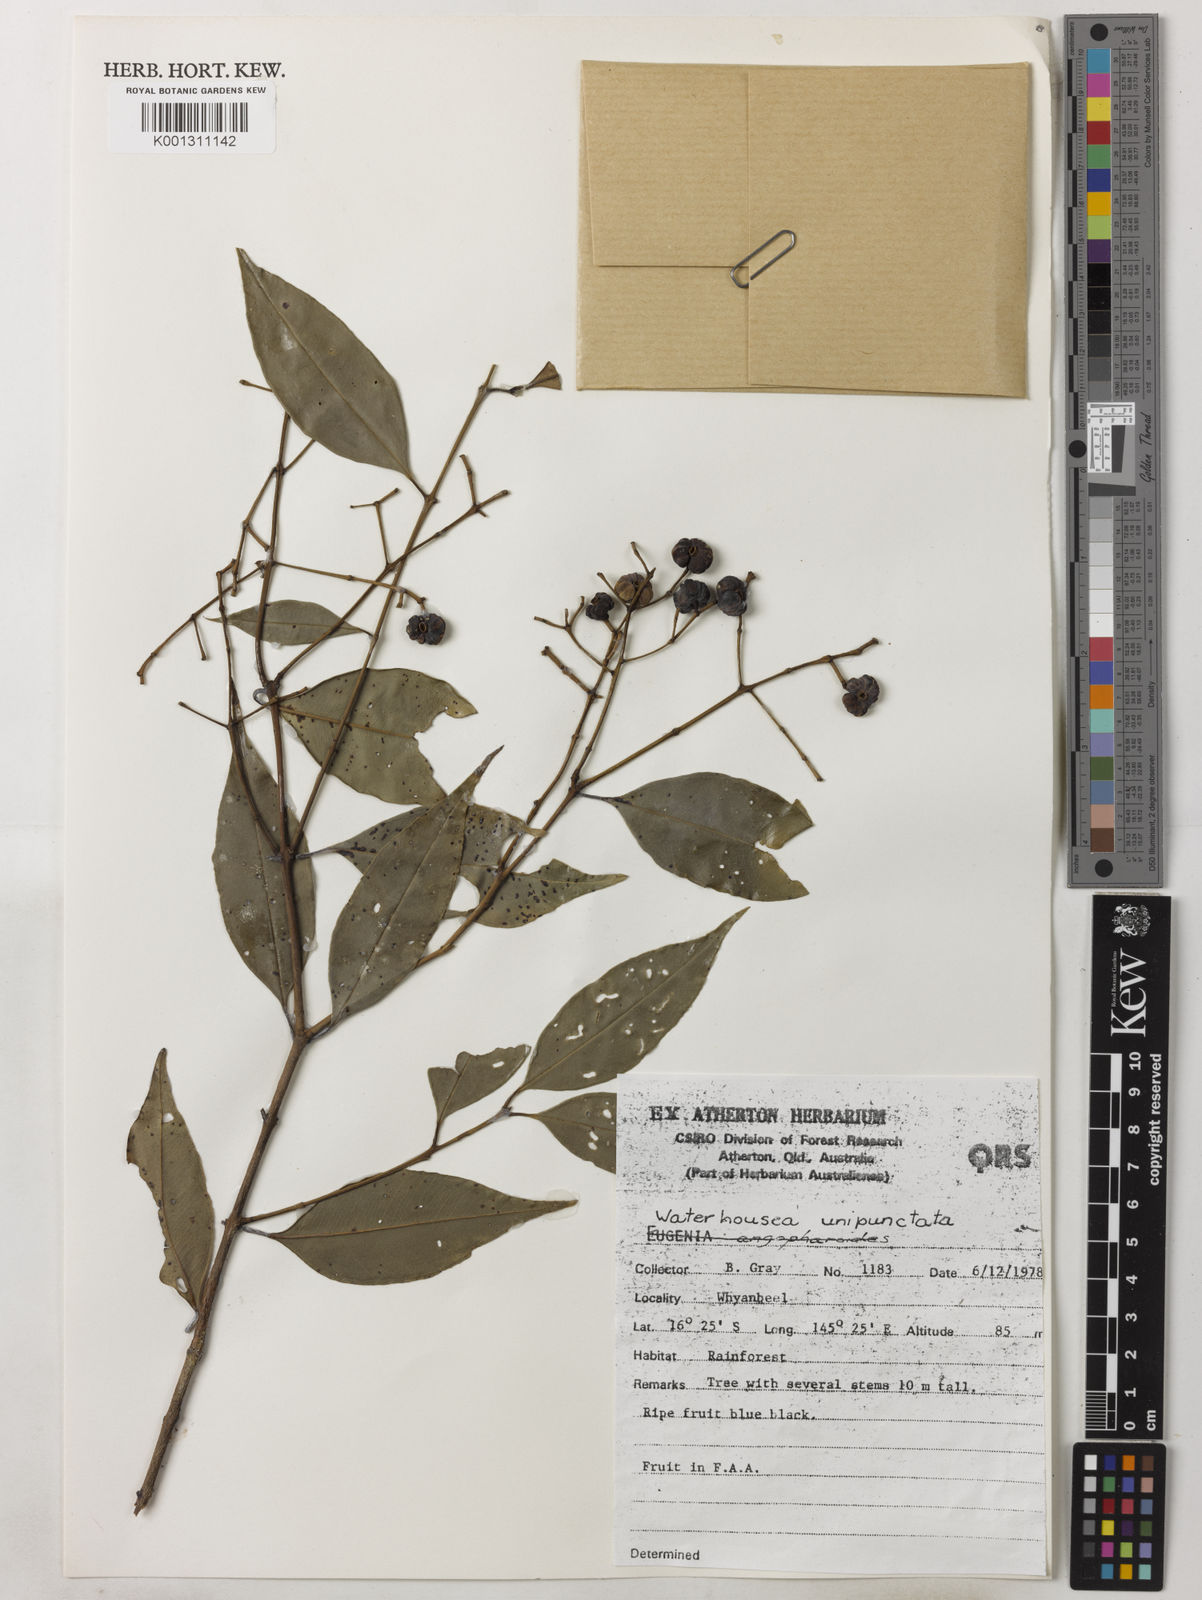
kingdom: Plantae
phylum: Tracheophyta
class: Magnoliopsida
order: Myrtales
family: Myrtaceae
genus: Syzygium
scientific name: Syzygium unipunctatum
